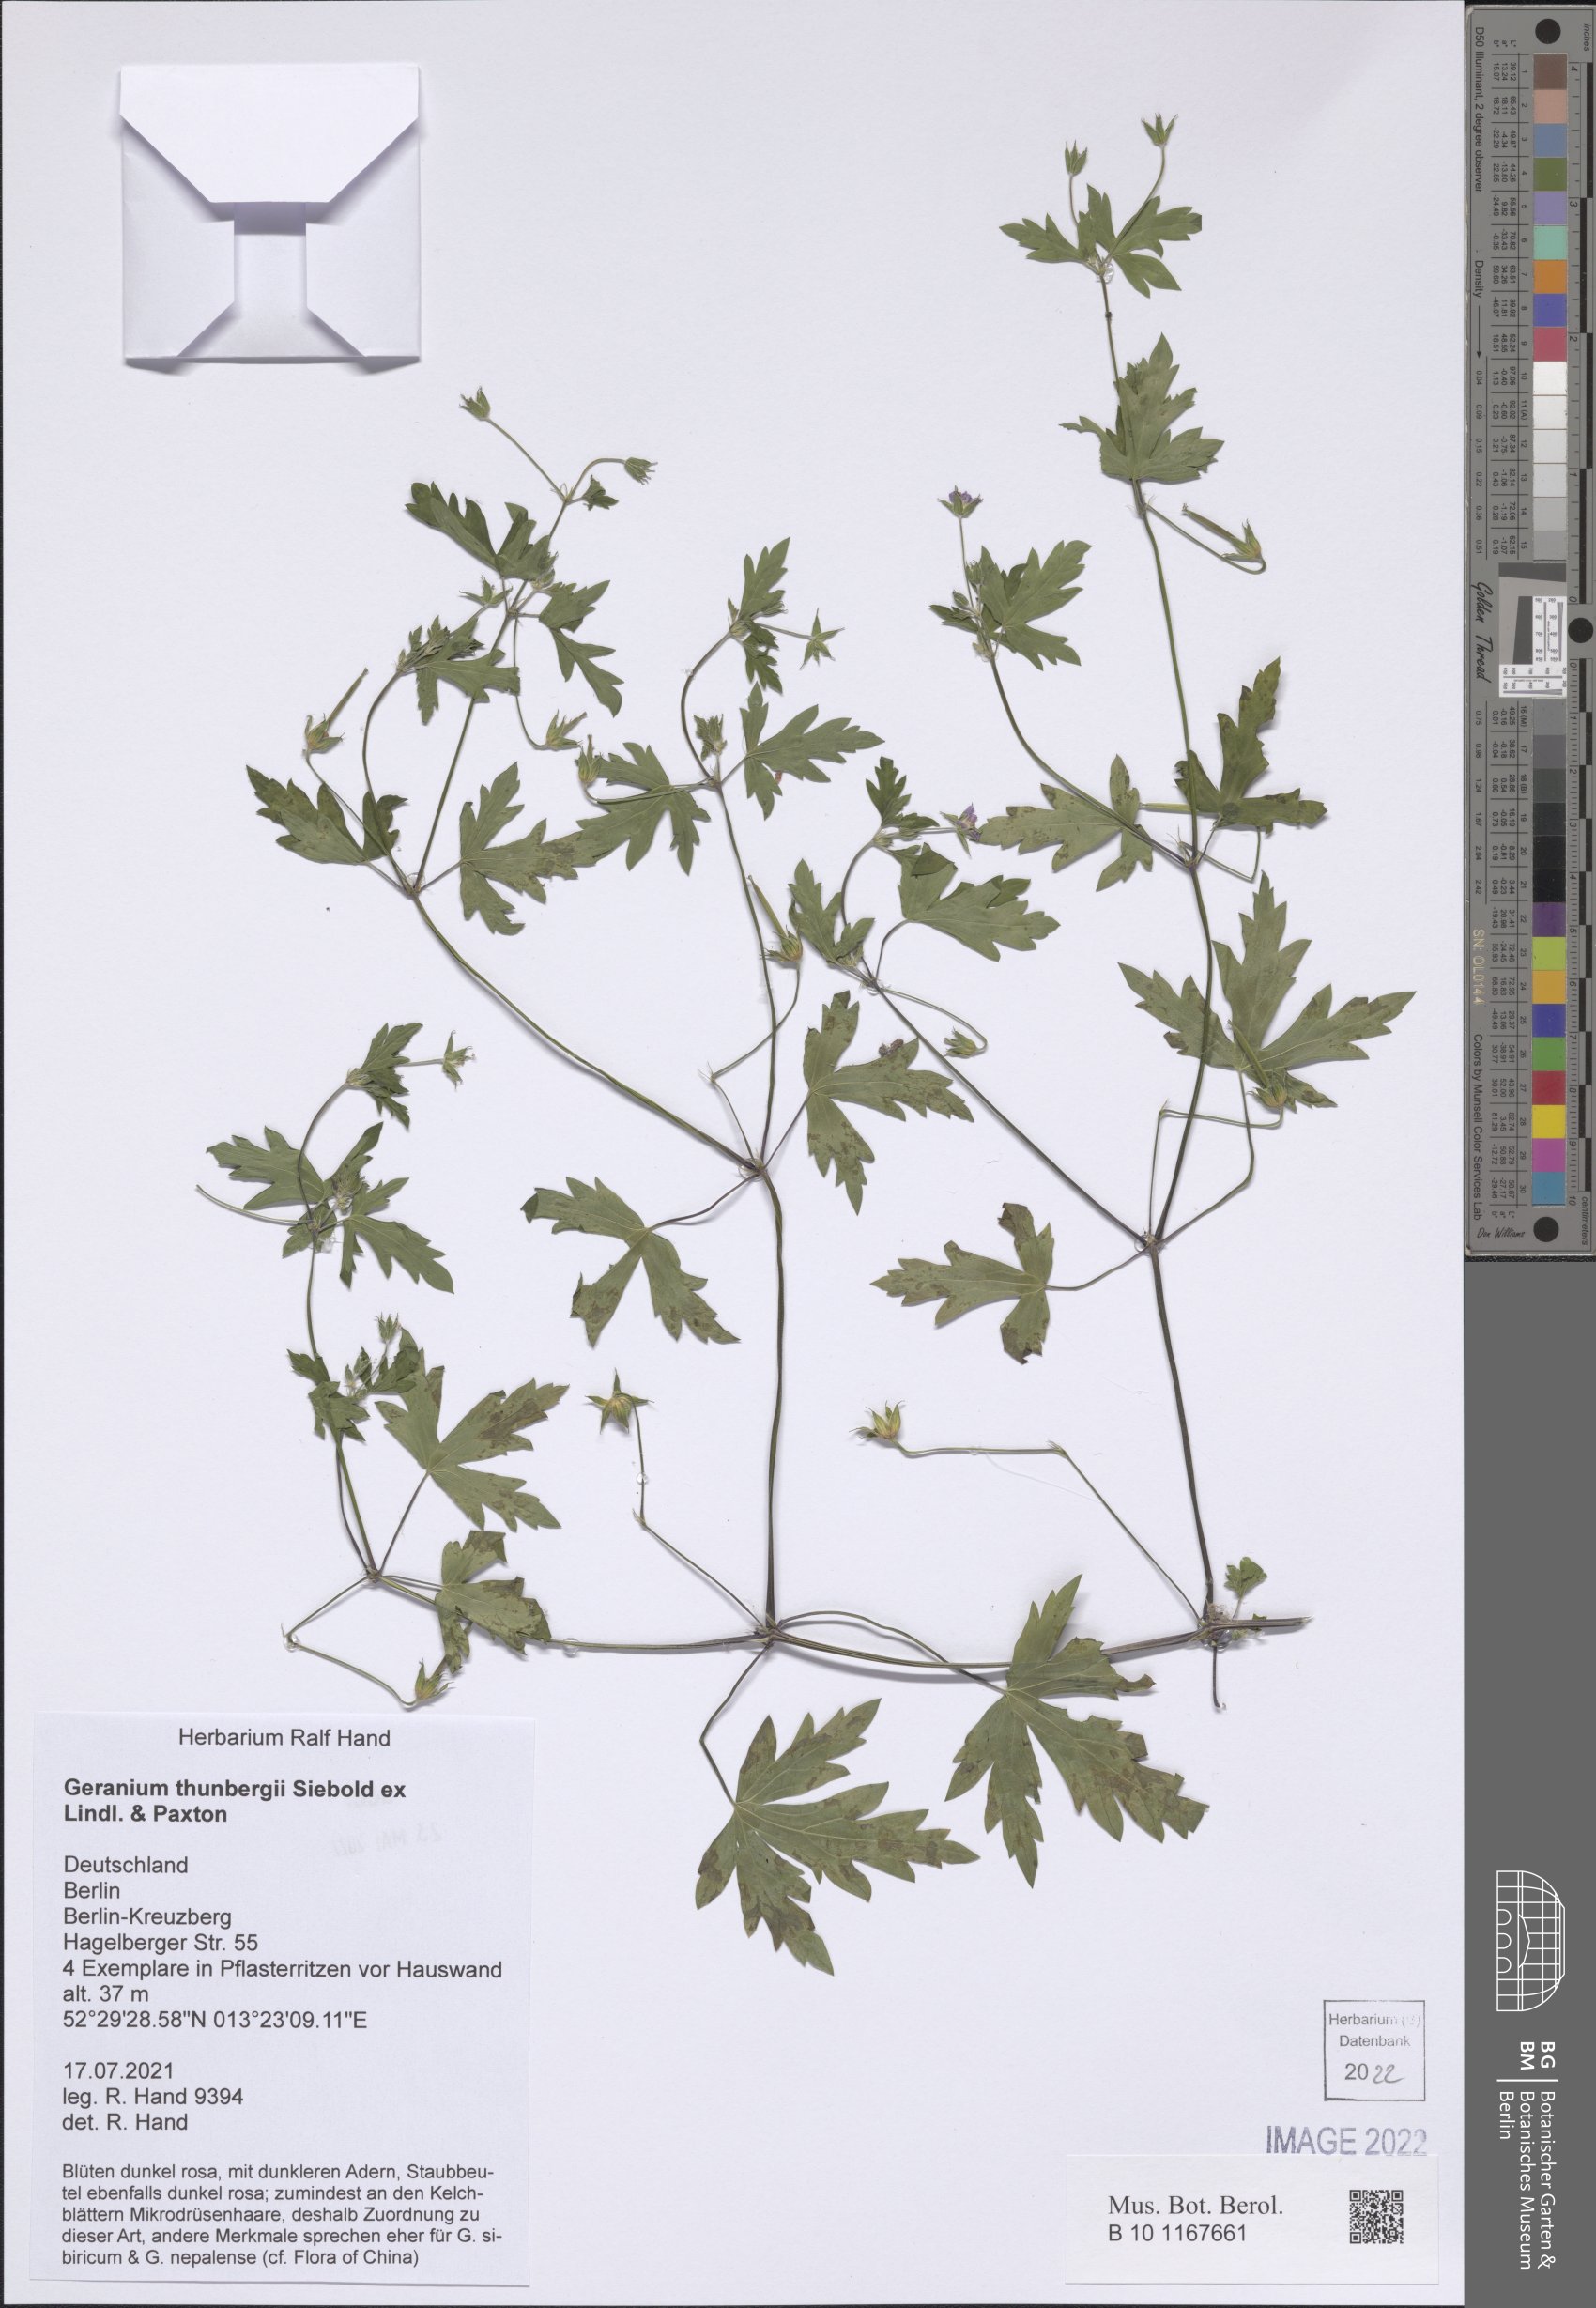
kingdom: Plantae
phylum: Tracheophyta
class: Magnoliopsida
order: Geraniales
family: Geraniaceae
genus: Geranium
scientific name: Geranium thunbergii
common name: Dewdrop crane's-bill
